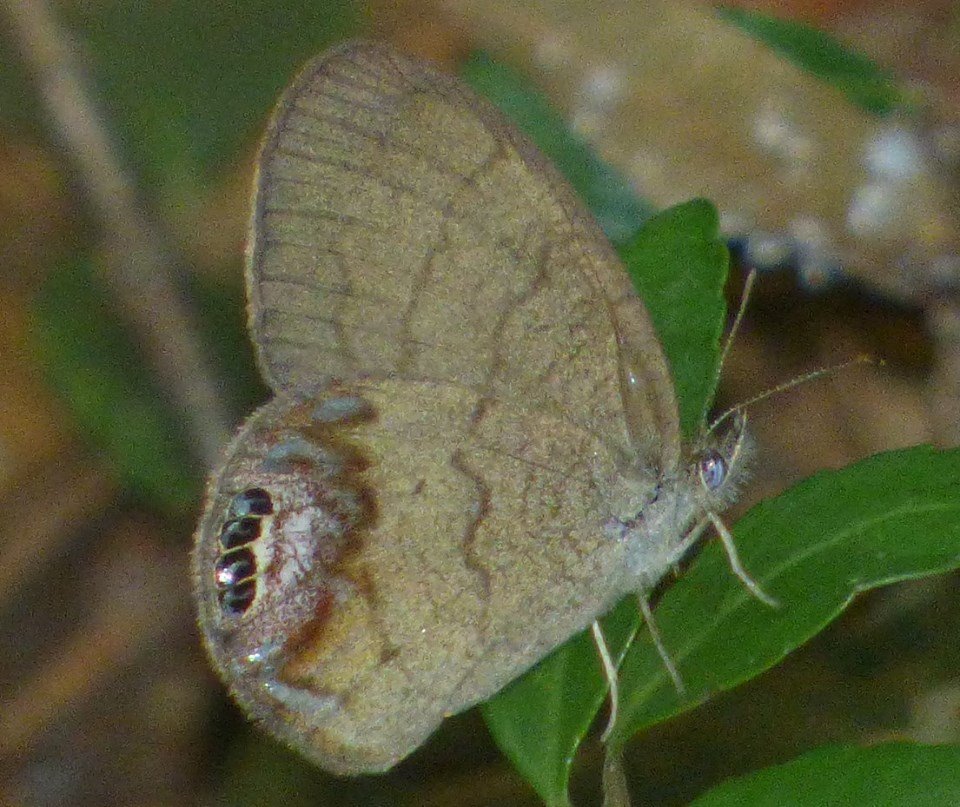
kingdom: Animalia
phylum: Arthropoda
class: Insecta
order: Lepidoptera
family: Nymphalidae
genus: Euptychia
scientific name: Euptychia cornelius
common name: Gemmed Satyr
